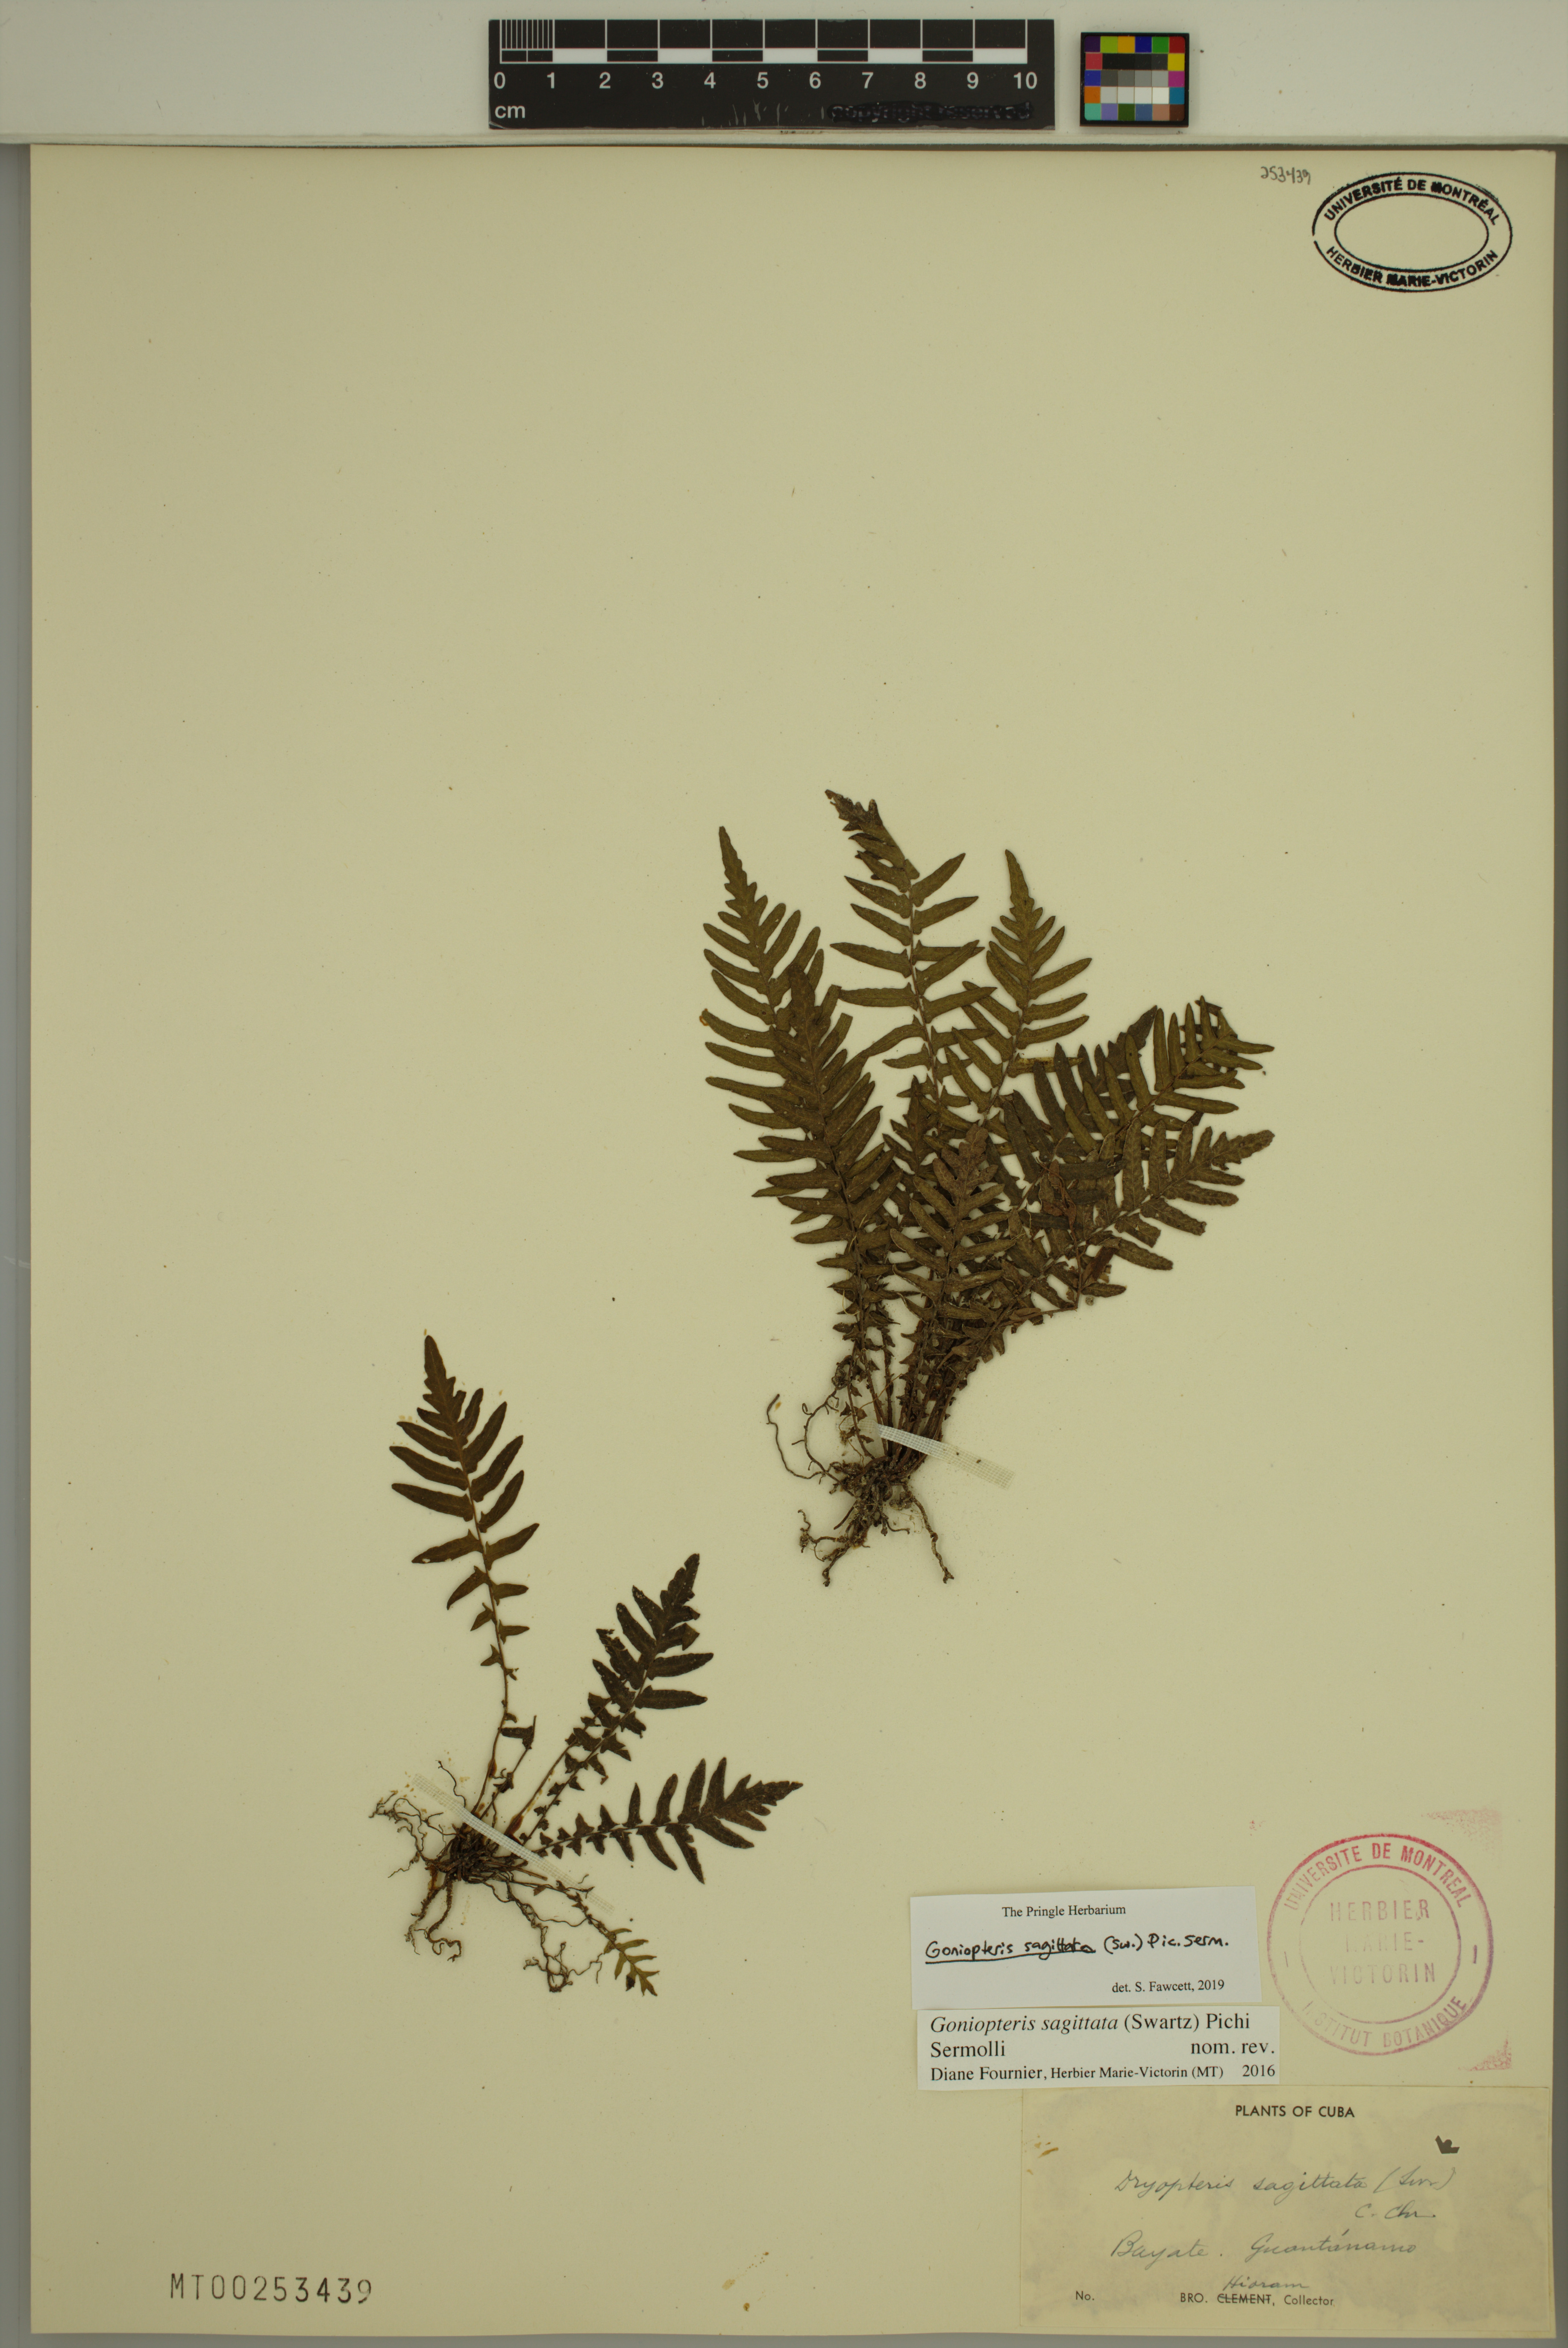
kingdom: Plantae
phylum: Tracheophyta
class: Polypodiopsida
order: Polypodiales
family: Thelypteridaceae
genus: Goniopteris
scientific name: Goniopteris sagittata
